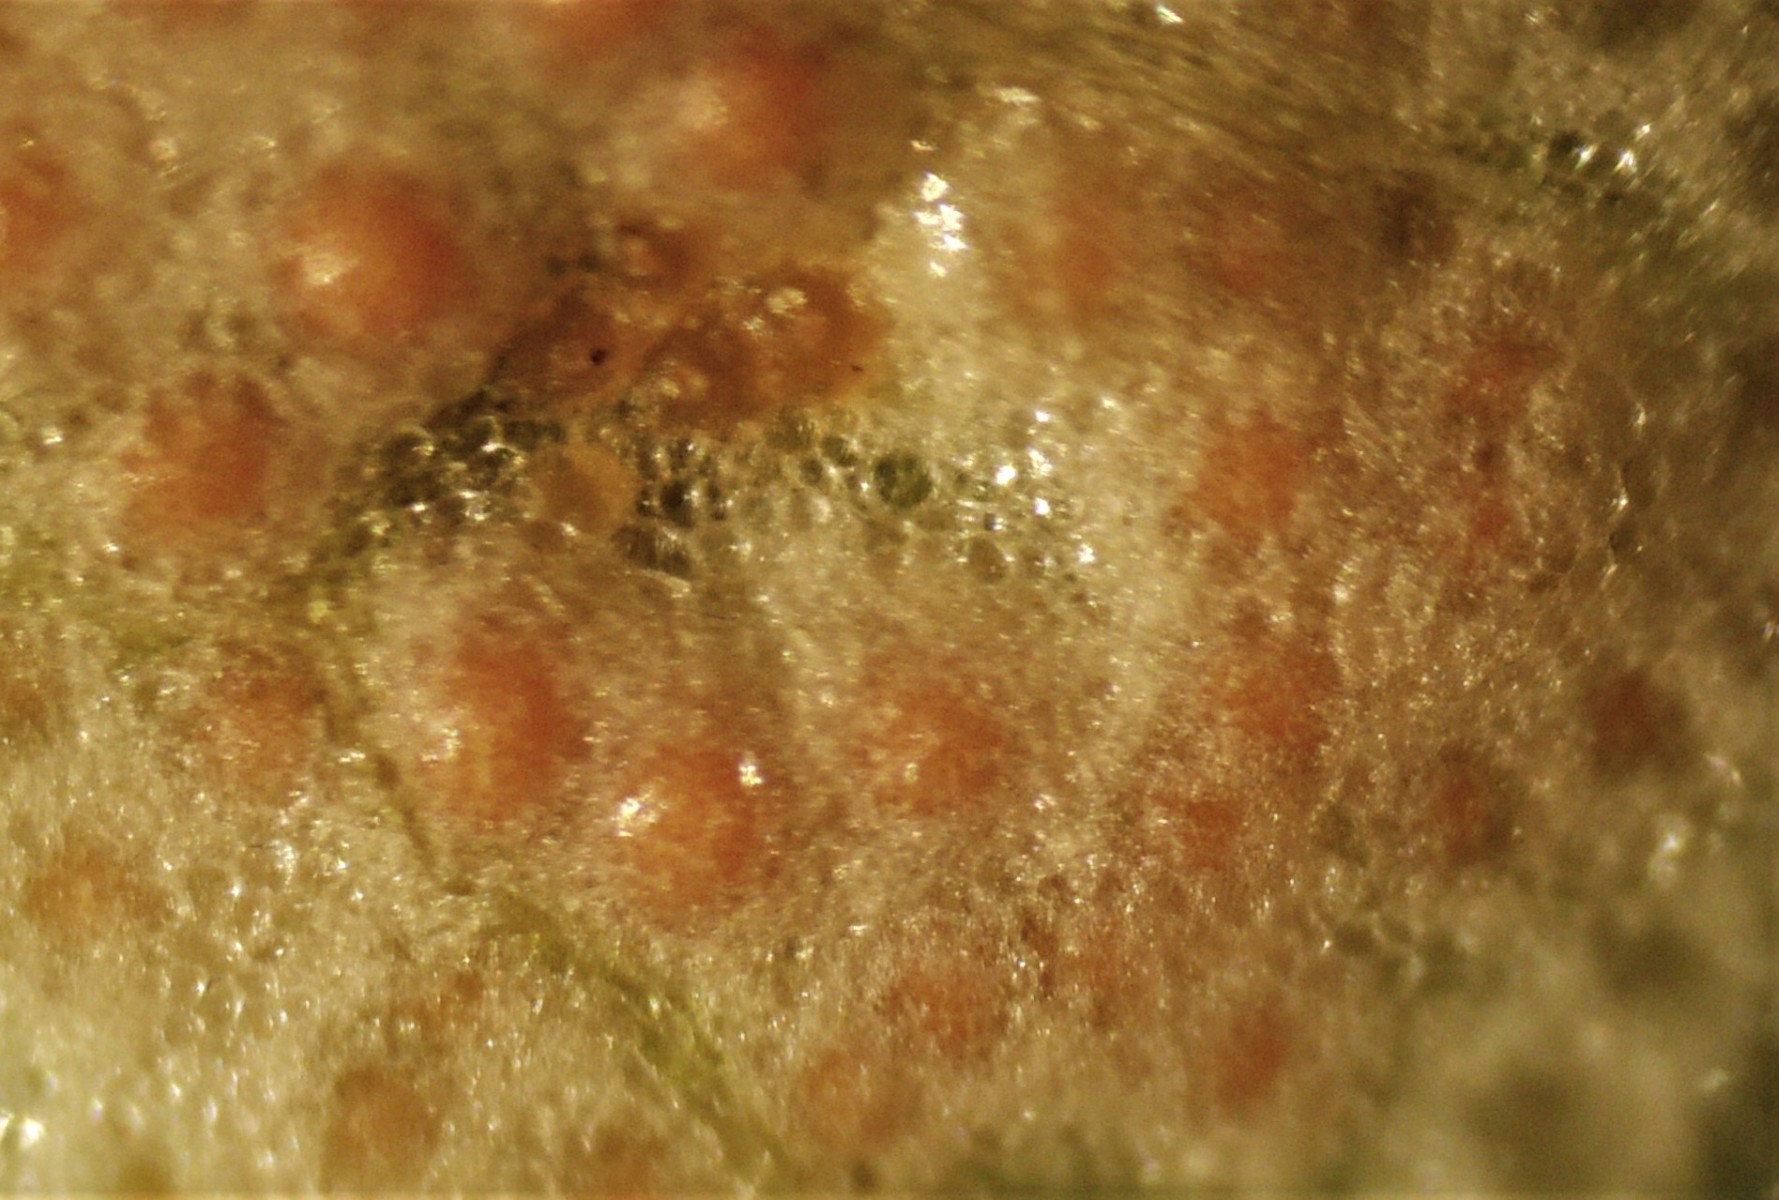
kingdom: Fungi
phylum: Basidiomycota
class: Pucciniomycetes
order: Pucciniales
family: Pucciniaceae
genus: Puccinia
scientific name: Puccinia sessilis
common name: Arum rust
